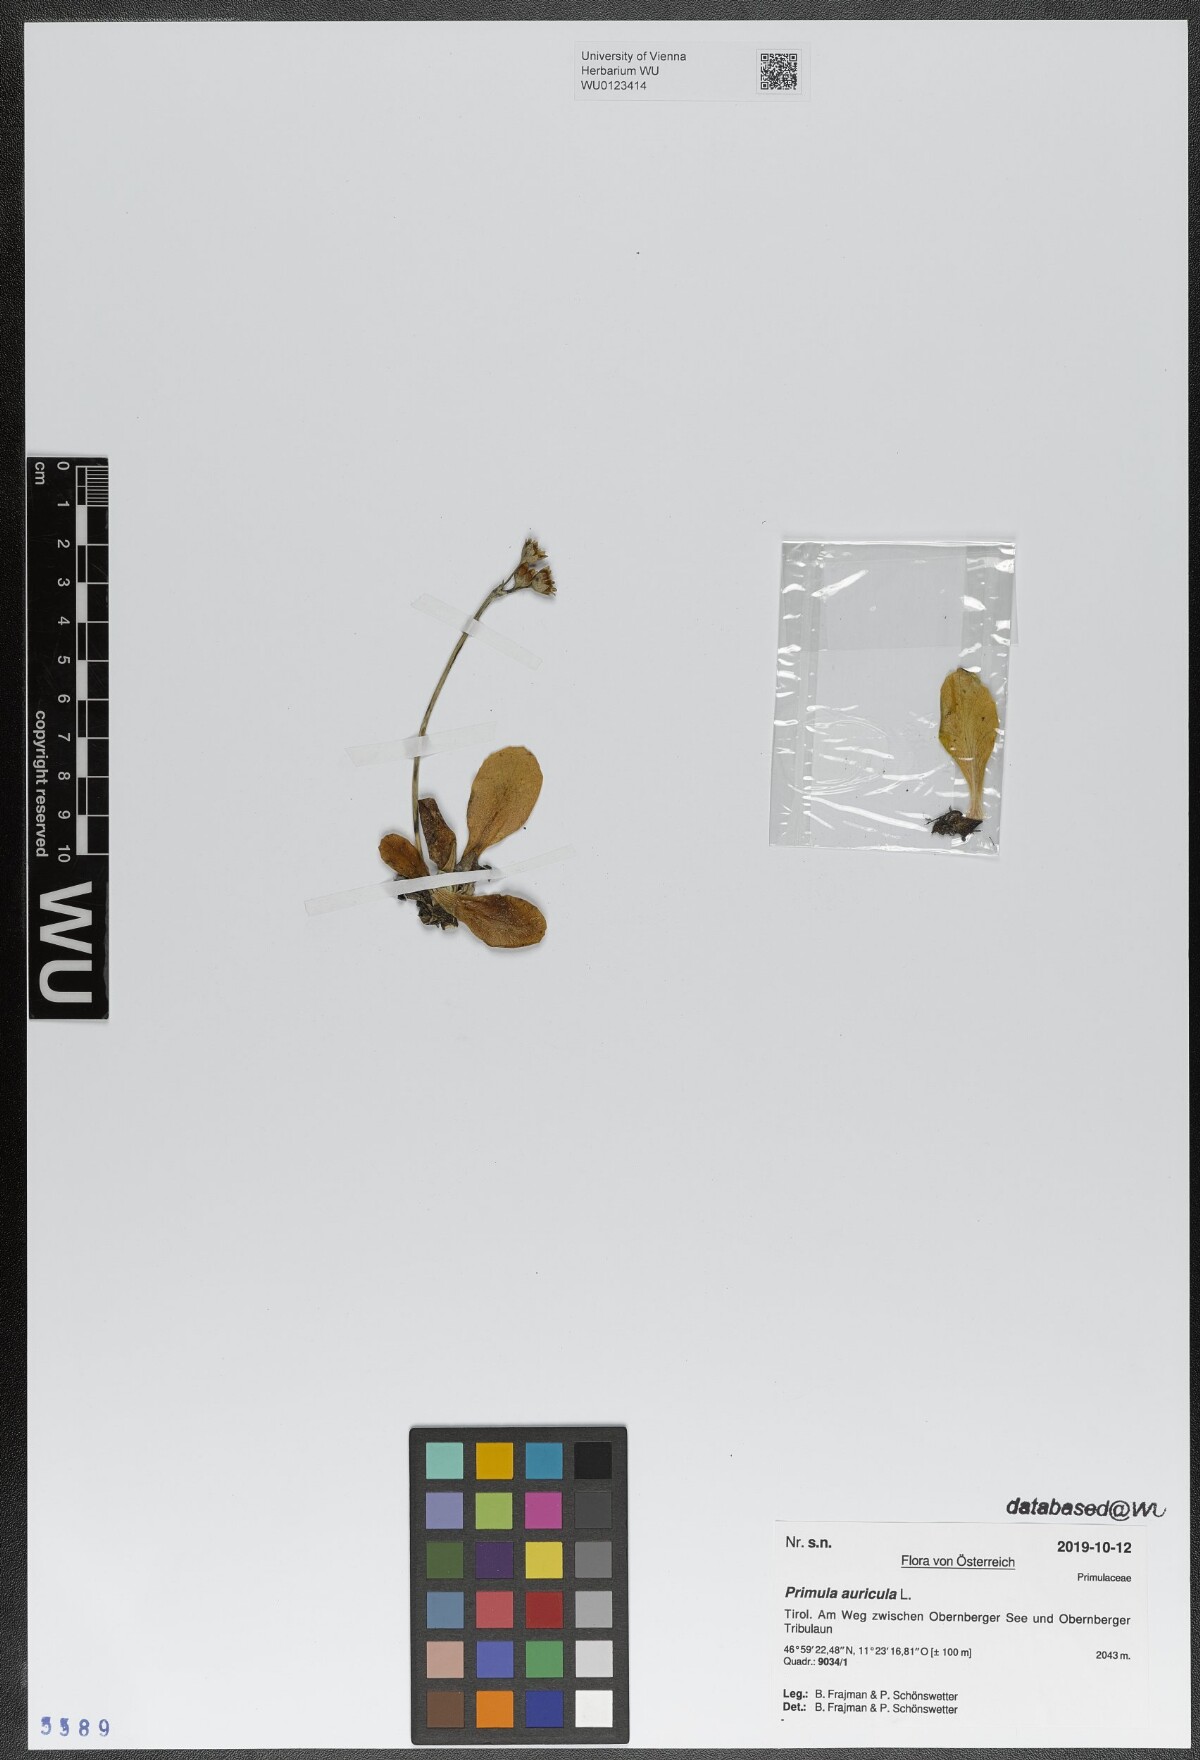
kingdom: Plantae
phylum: Tracheophyta
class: Magnoliopsida
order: Ericales
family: Primulaceae
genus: Primula
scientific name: Primula auricula
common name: Auricula
